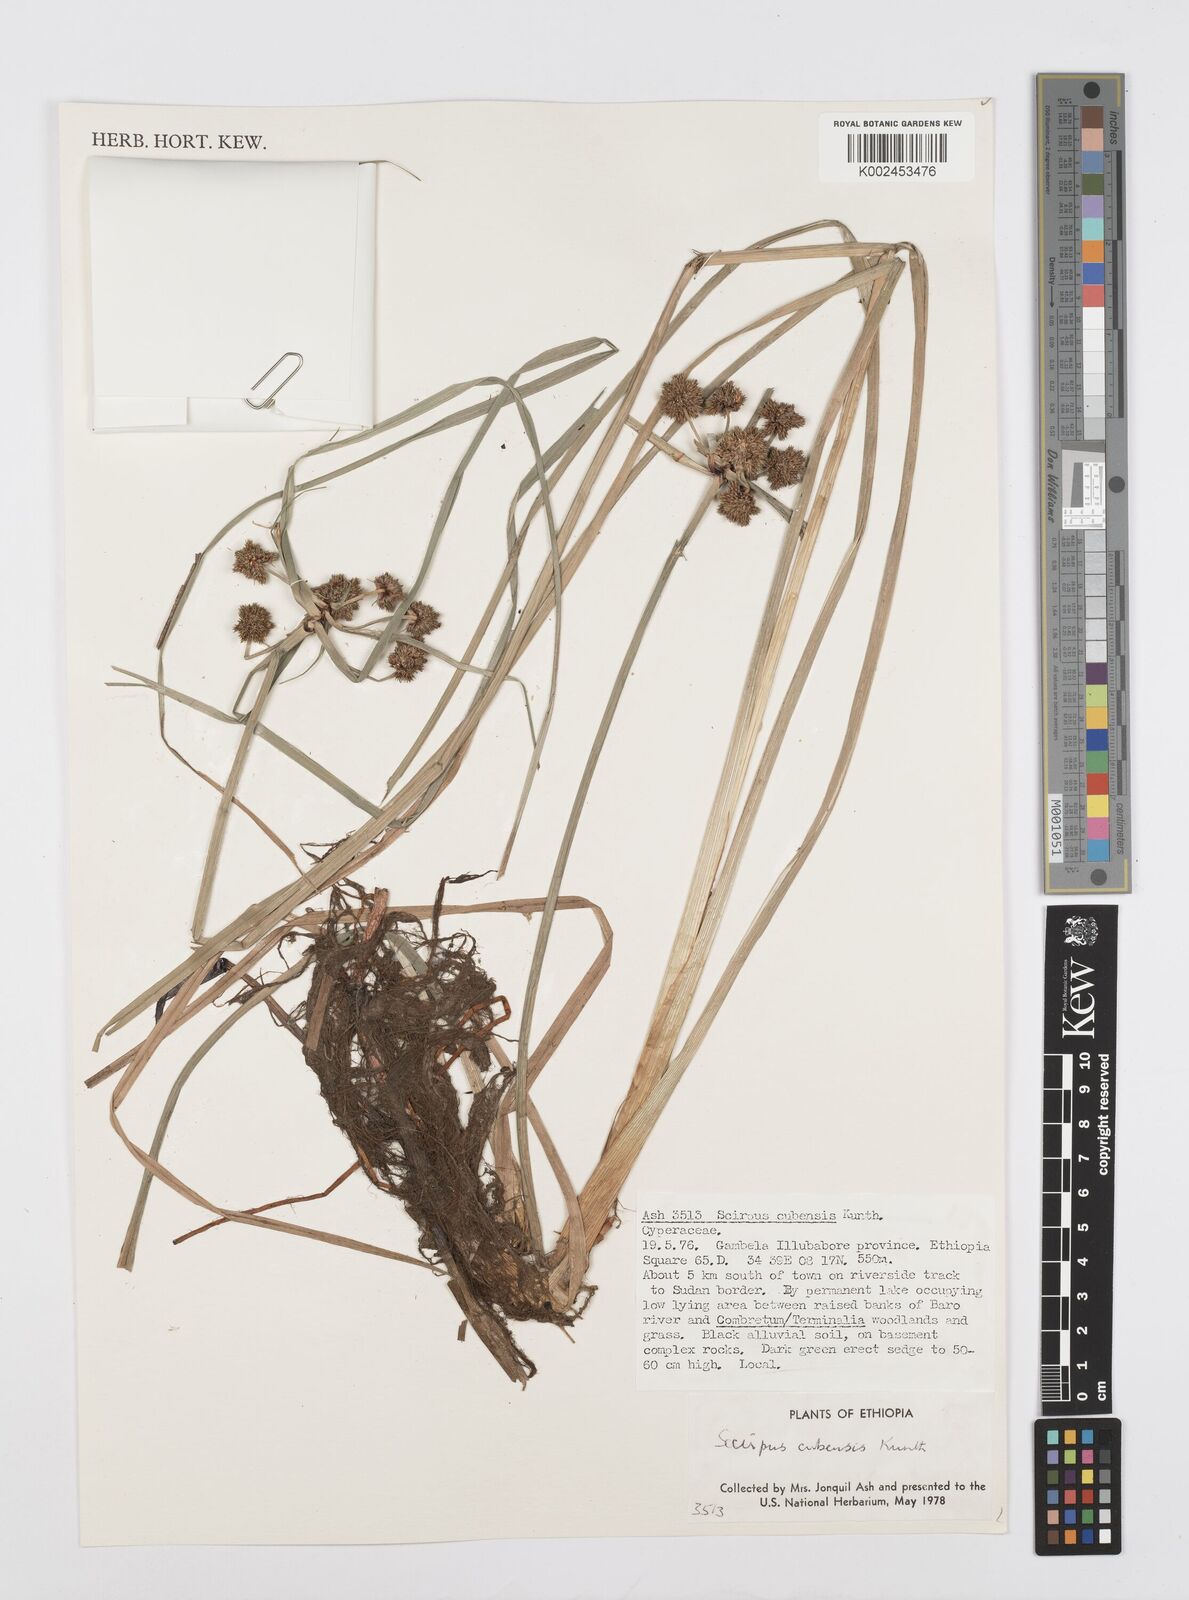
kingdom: Plantae
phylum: Tracheophyta
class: Liliopsida
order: Poales
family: Cyperaceae
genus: Cyperus
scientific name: Cyperus elegans
